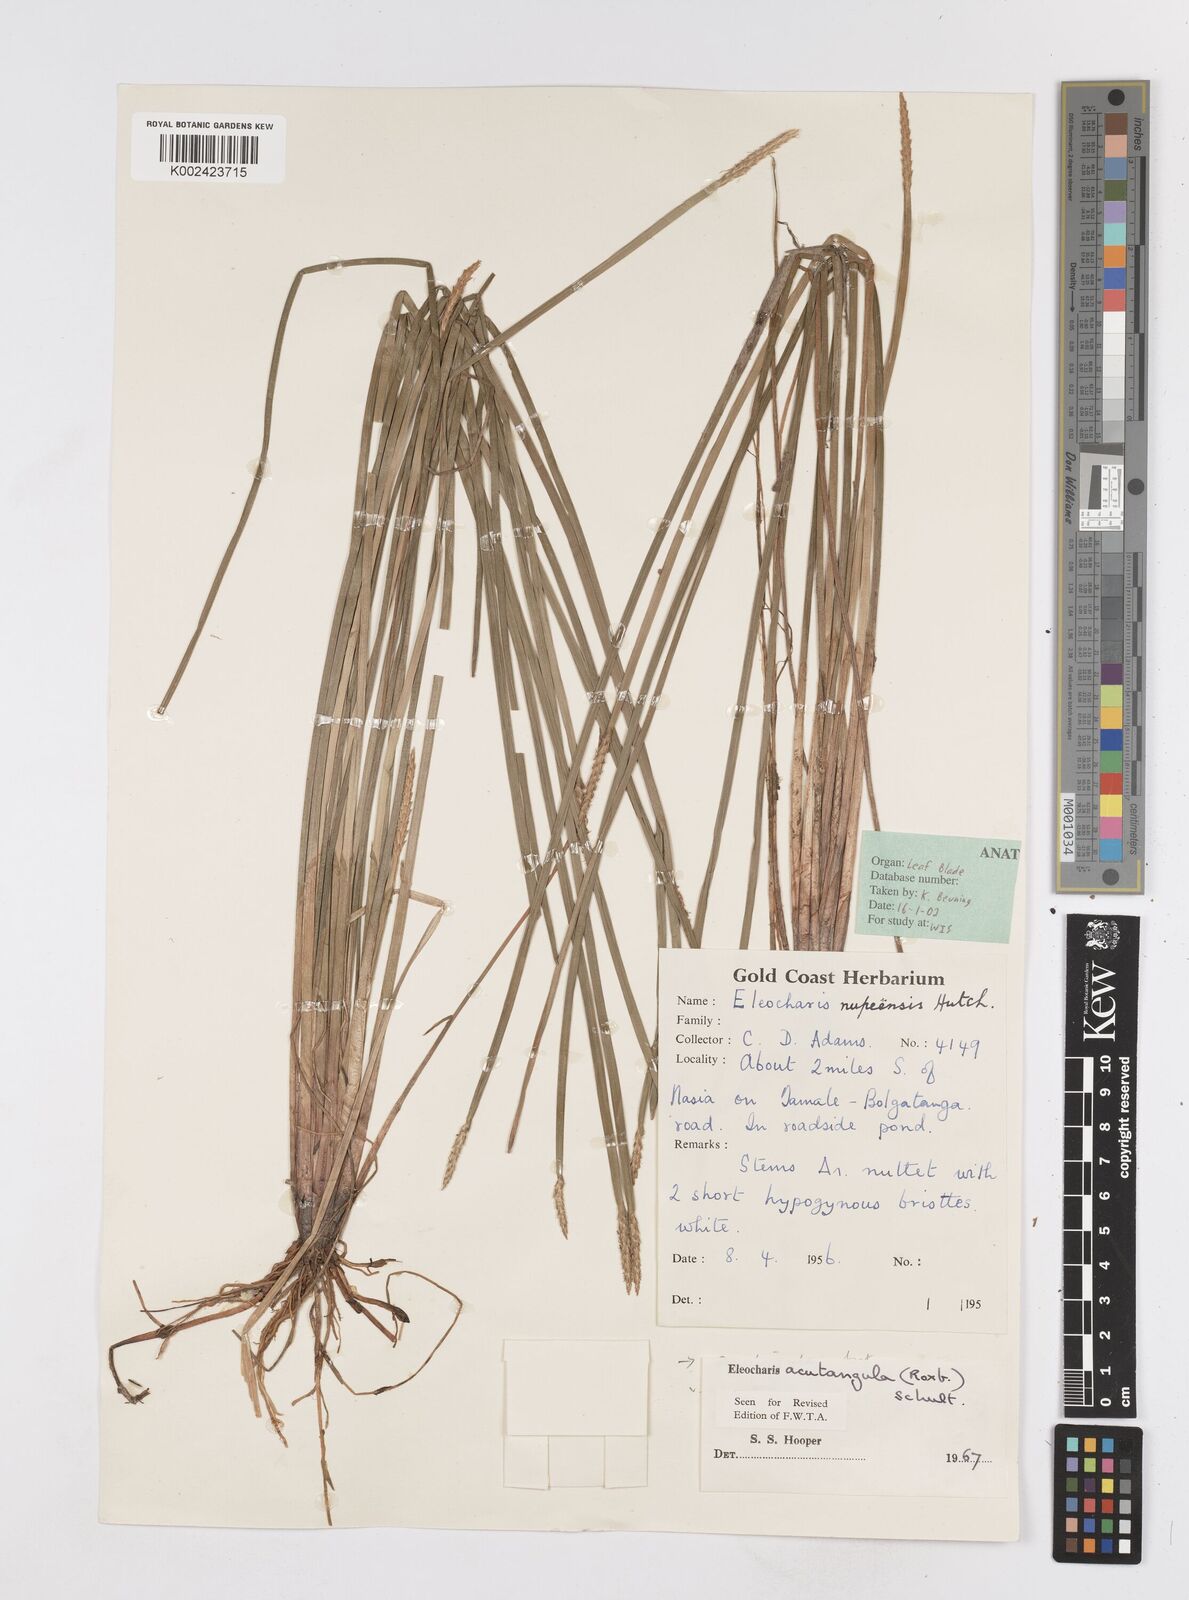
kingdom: Plantae
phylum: Tracheophyta
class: Liliopsida
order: Poales
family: Cyperaceae
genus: Eleocharis
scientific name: Eleocharis acutangula
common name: Acute spikerush
